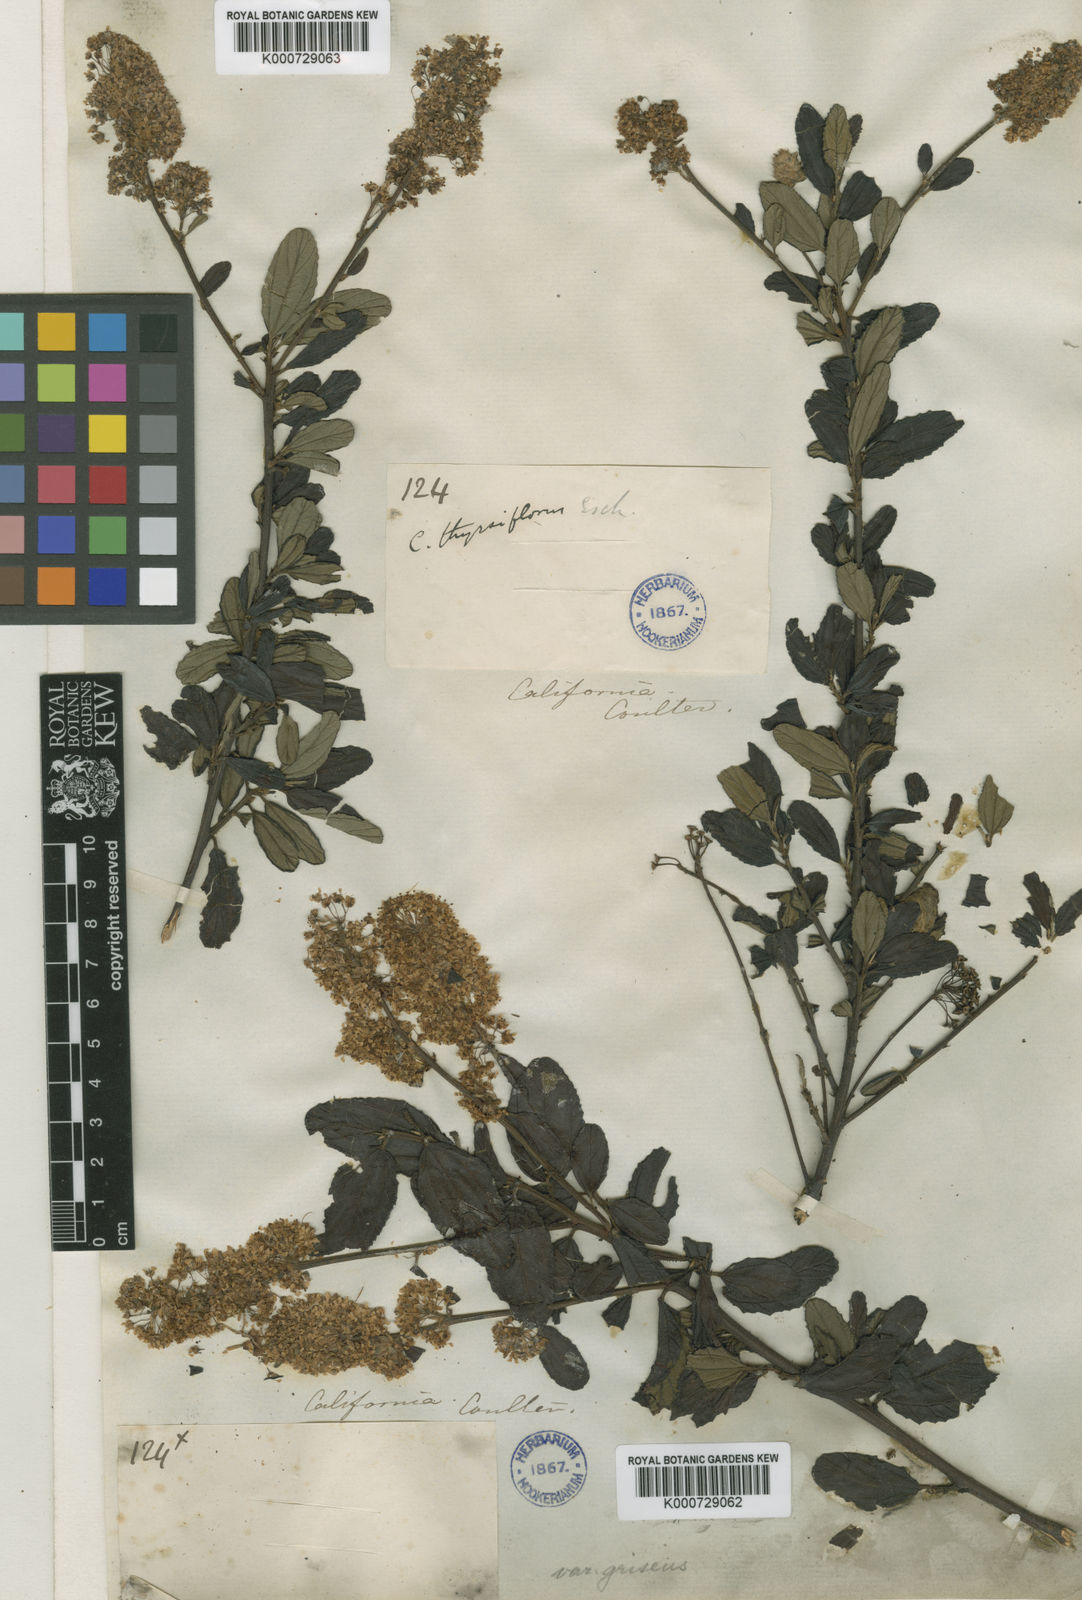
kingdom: Plantae
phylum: Tracheophyta
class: Magnoliopsida
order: Rosales
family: Rhamnaceae
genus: Ceanothus
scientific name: Ceanothus thyrsiflorus
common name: California-lilac
